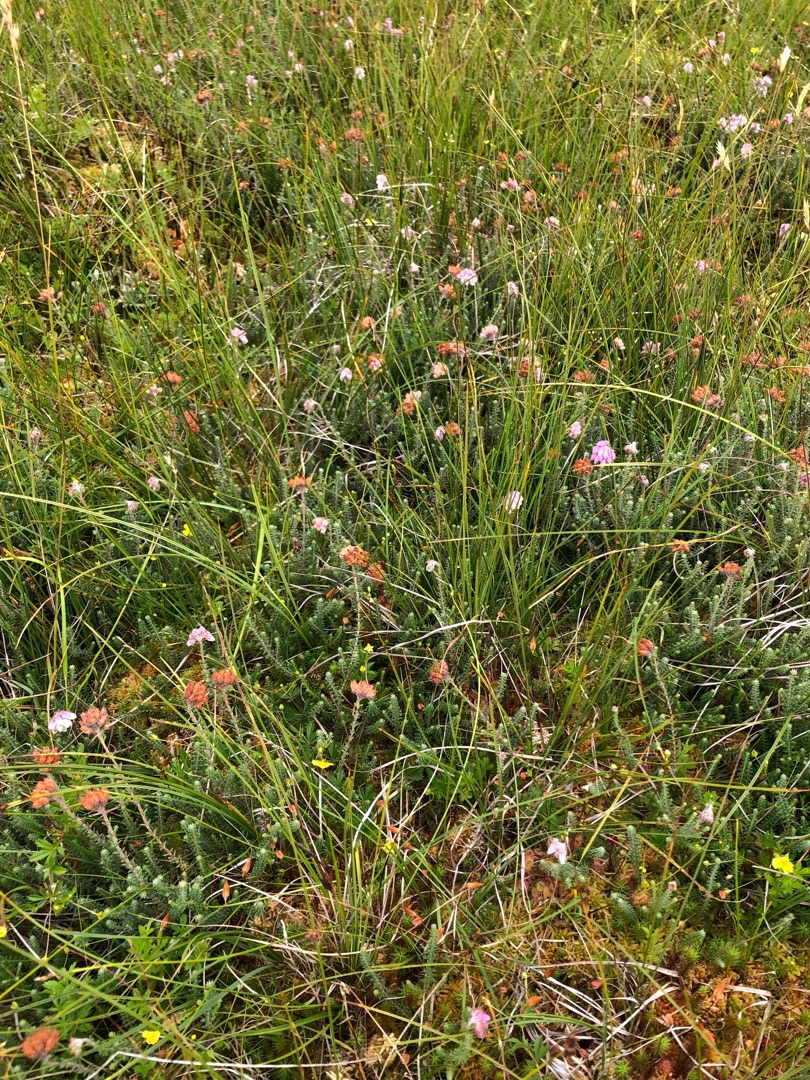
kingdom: Plantae
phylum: Tracheophyta
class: Magnoliopsida
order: Ericales
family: Ericaceae
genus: Erica
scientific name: Erica tetralix
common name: Klokkelyng
